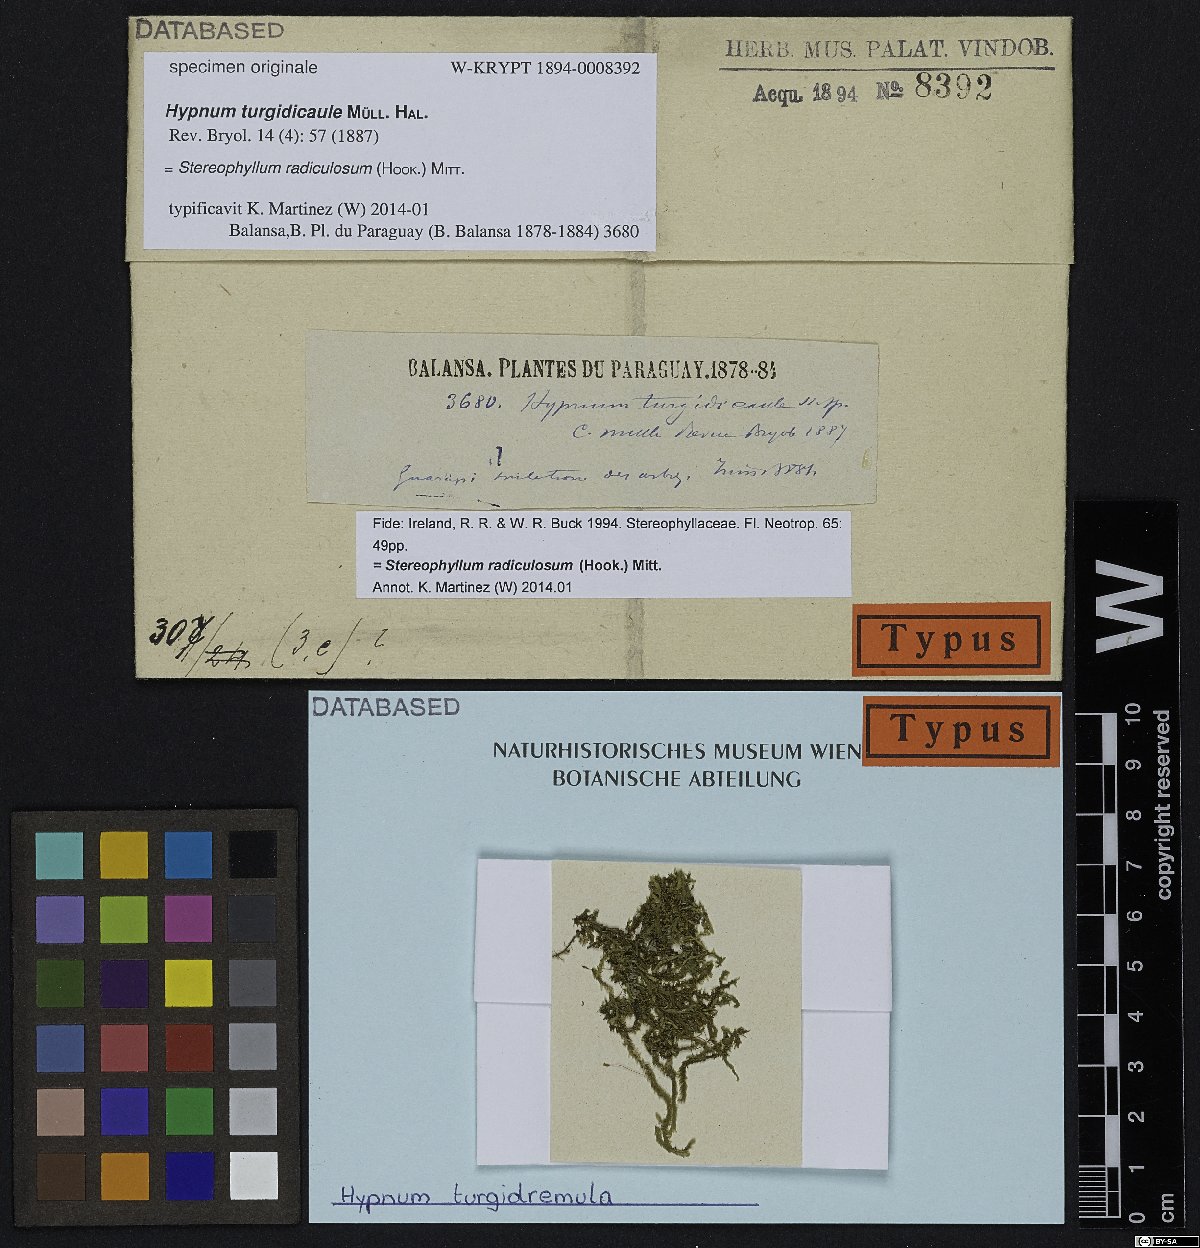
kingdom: Plantae
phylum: Bryophyta
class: Bryopsida
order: Hypnales
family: Hypnaceae
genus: Hypnum
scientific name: Hypnum
